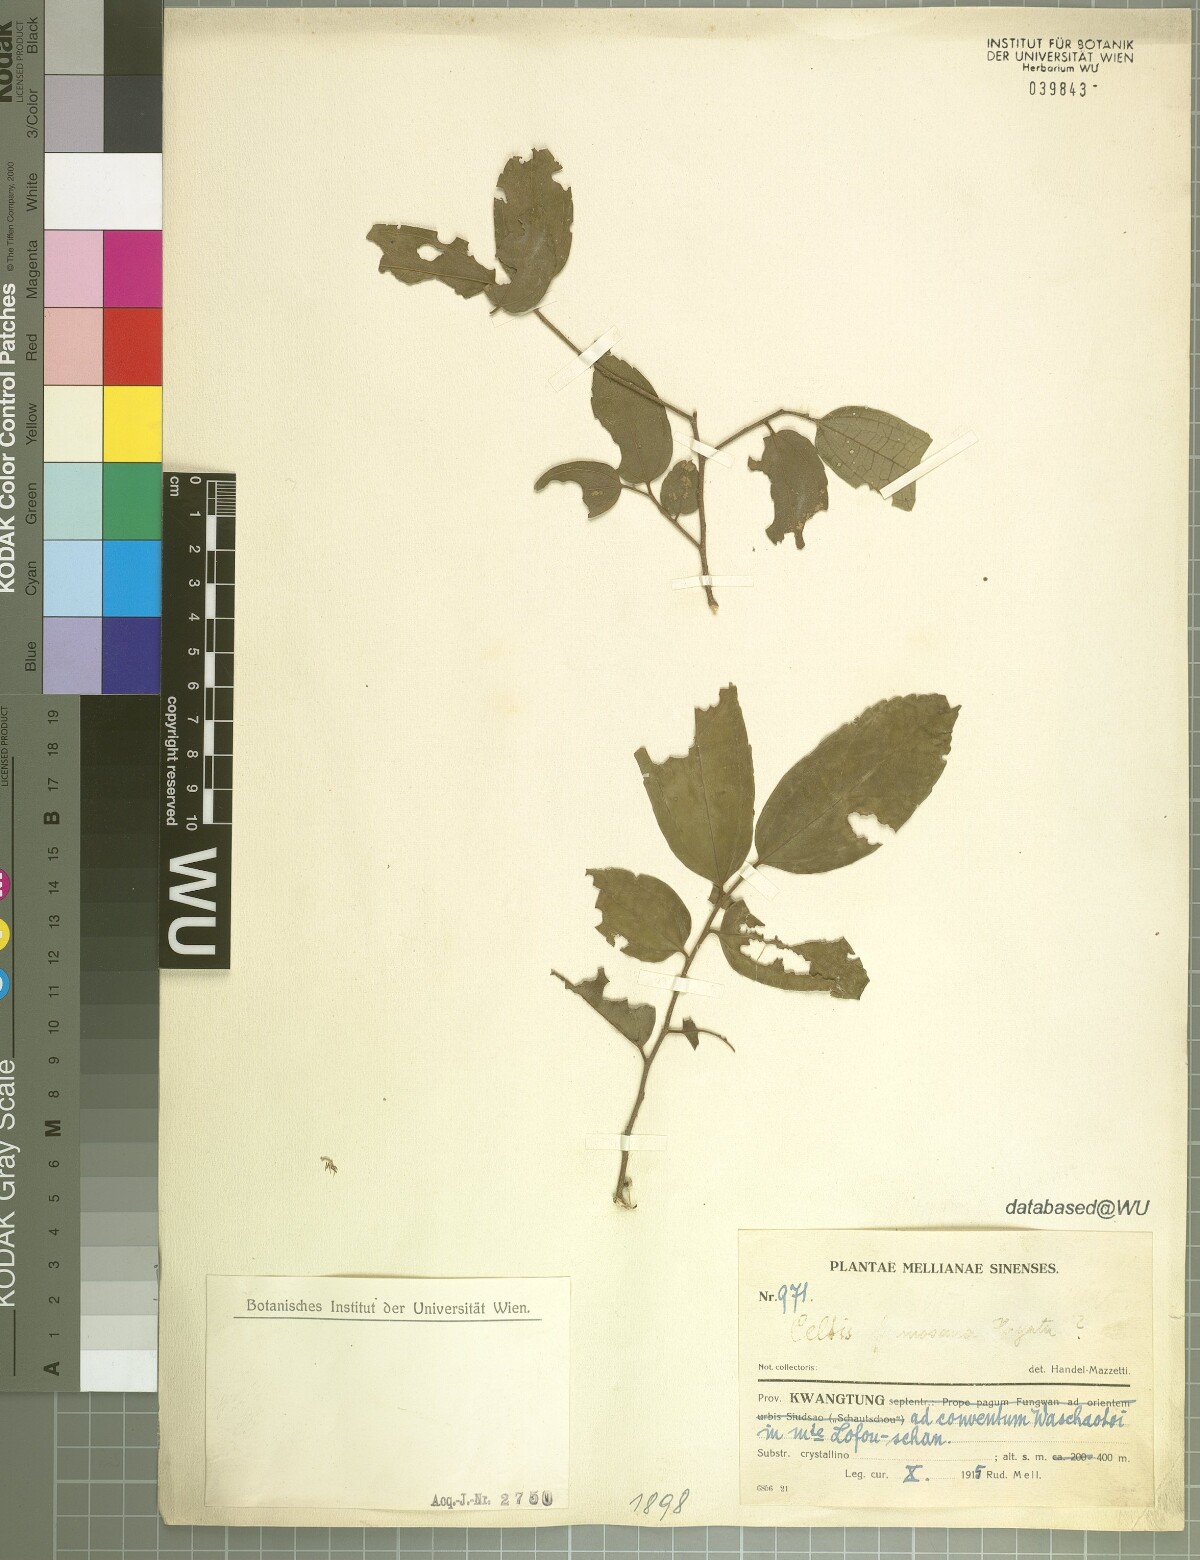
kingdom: Plantae
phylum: Tracheophyta
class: Magnoliopsida
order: Rosales
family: Cannabaceae
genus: Celtis
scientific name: Celtis
